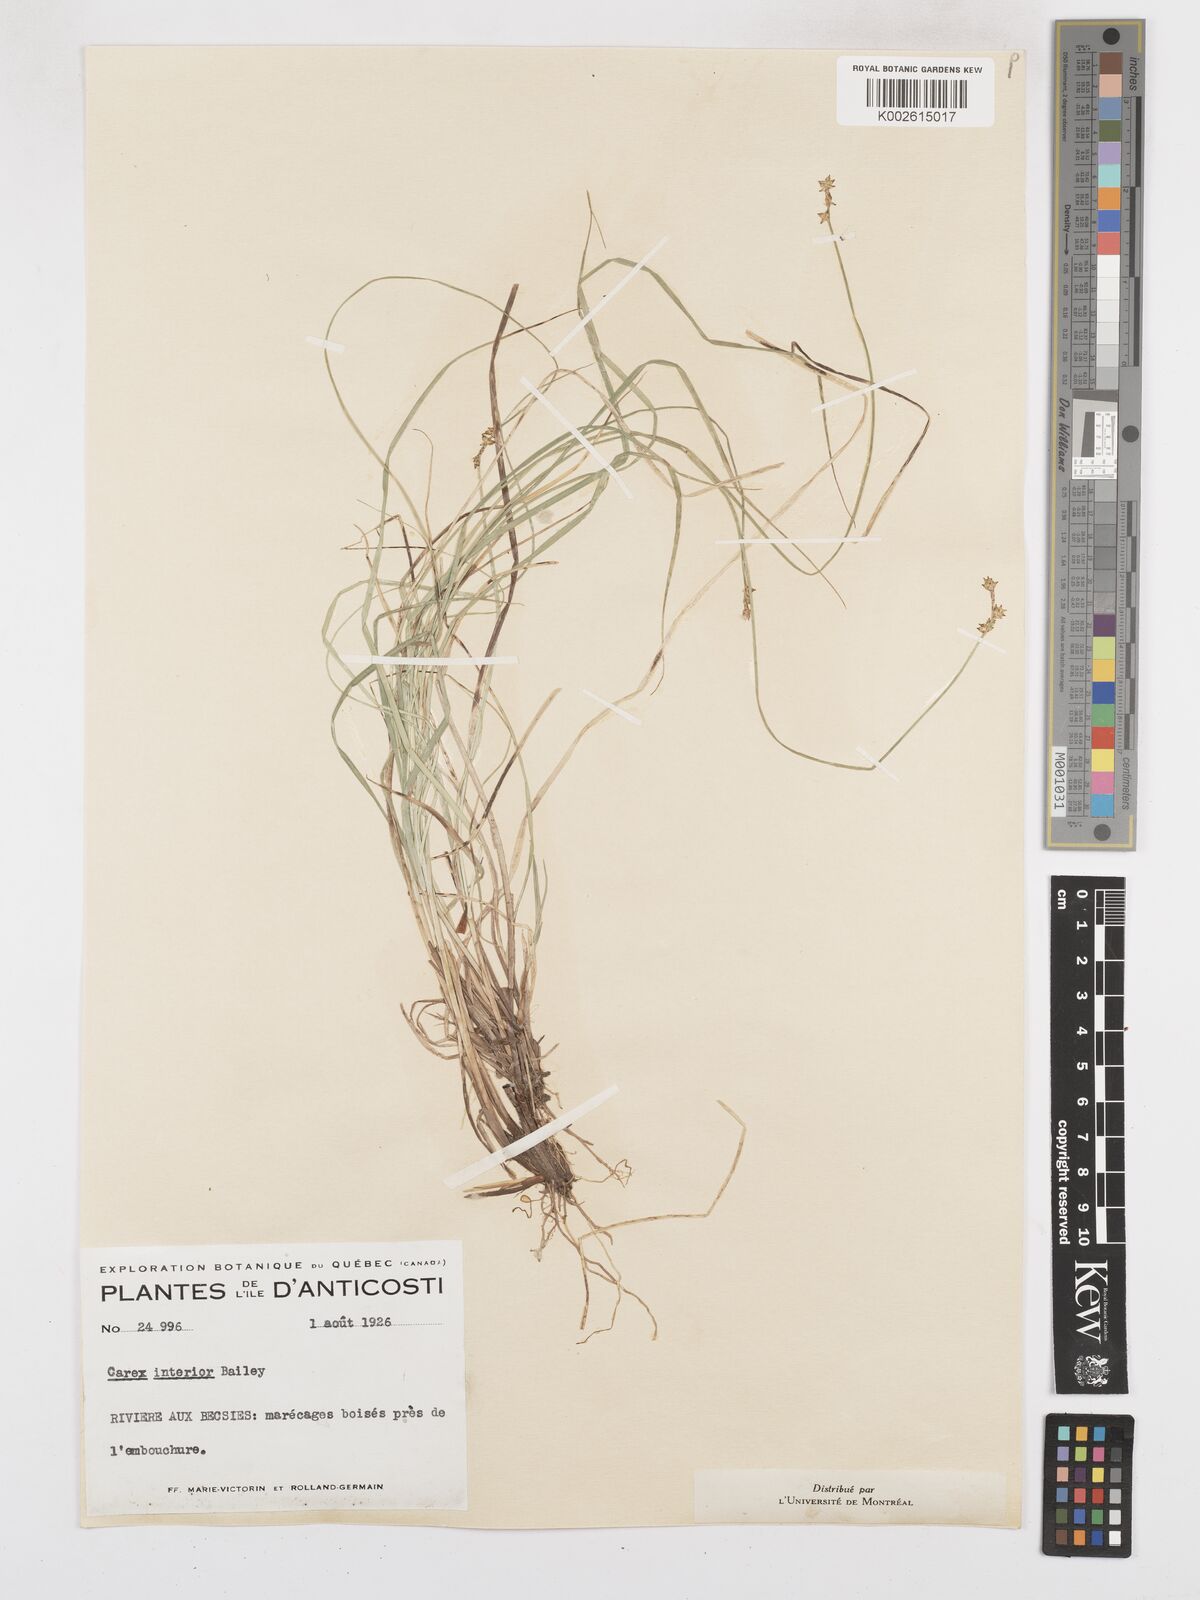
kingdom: Plantae
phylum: Tracheophyta
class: Liliopsida
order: Poales
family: Cyperaceae
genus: Carex
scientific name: Carex interior
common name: Inland sedge
